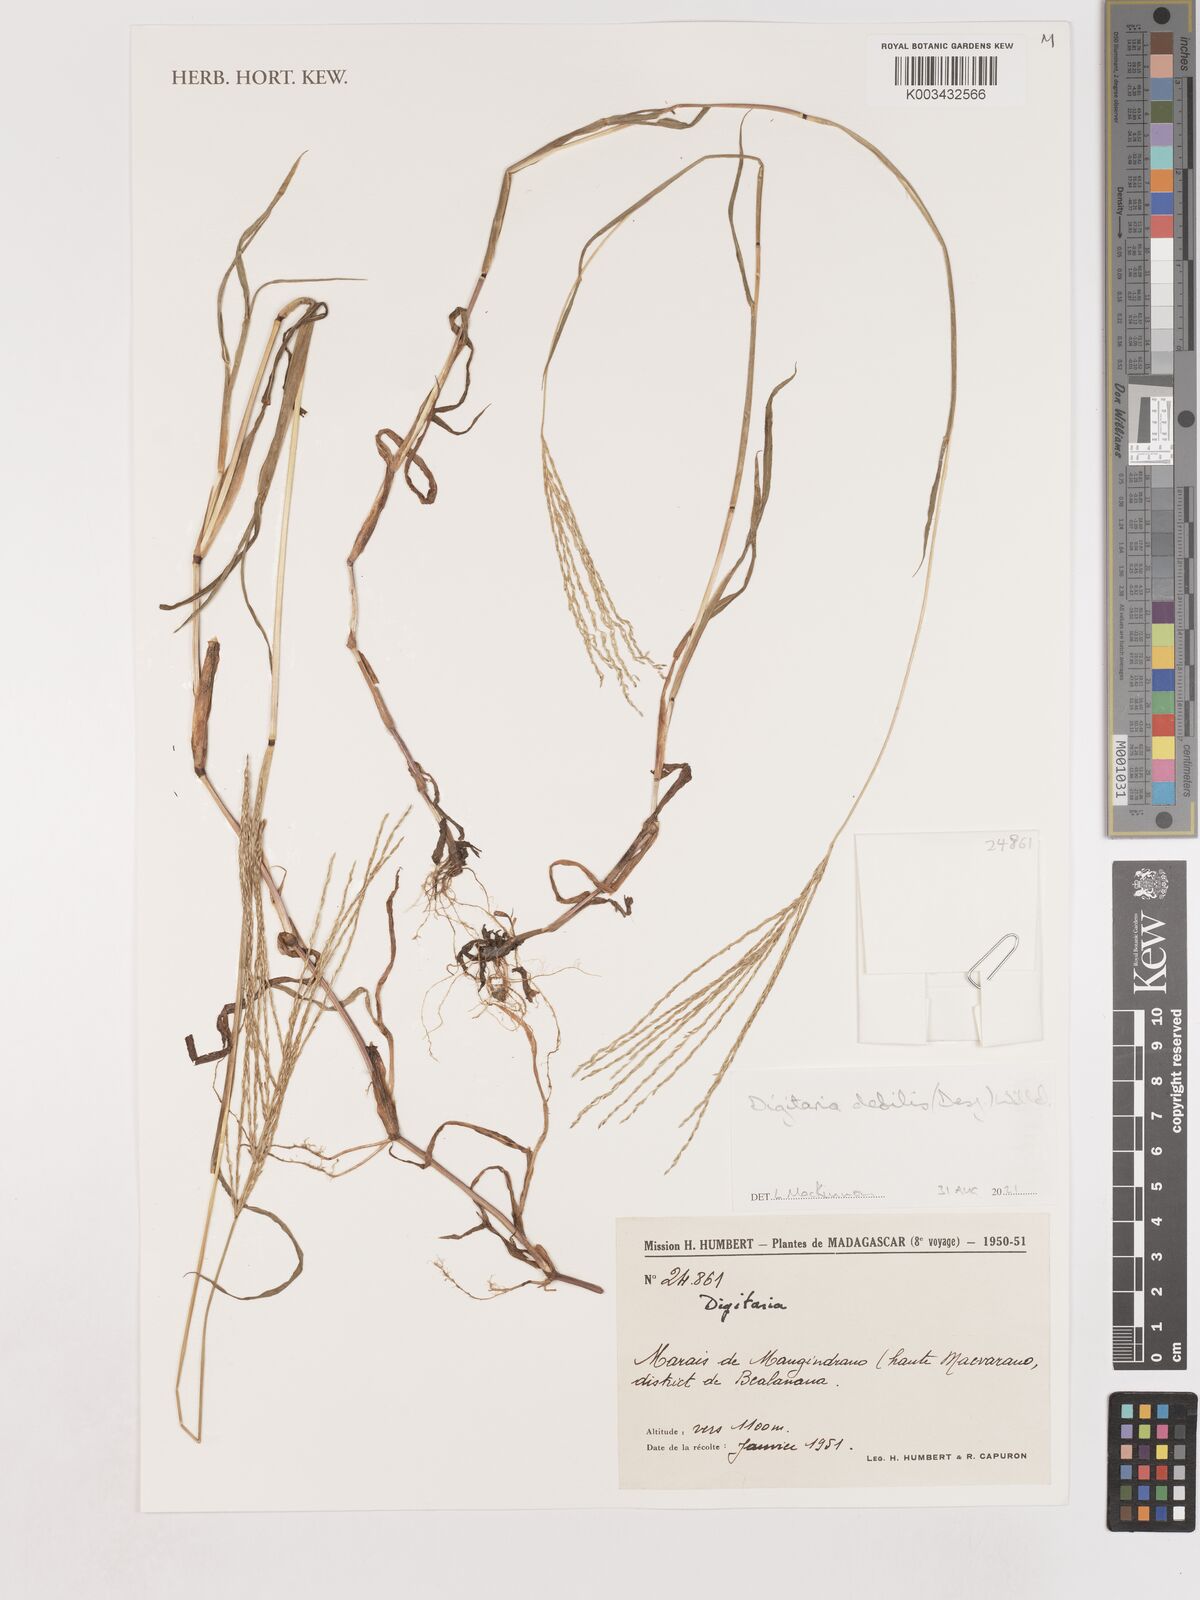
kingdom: Plantae
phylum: Tracheophyta
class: Liliopsida
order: Poales
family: Poaceae
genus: Digitaria
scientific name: Digitaria debilis
